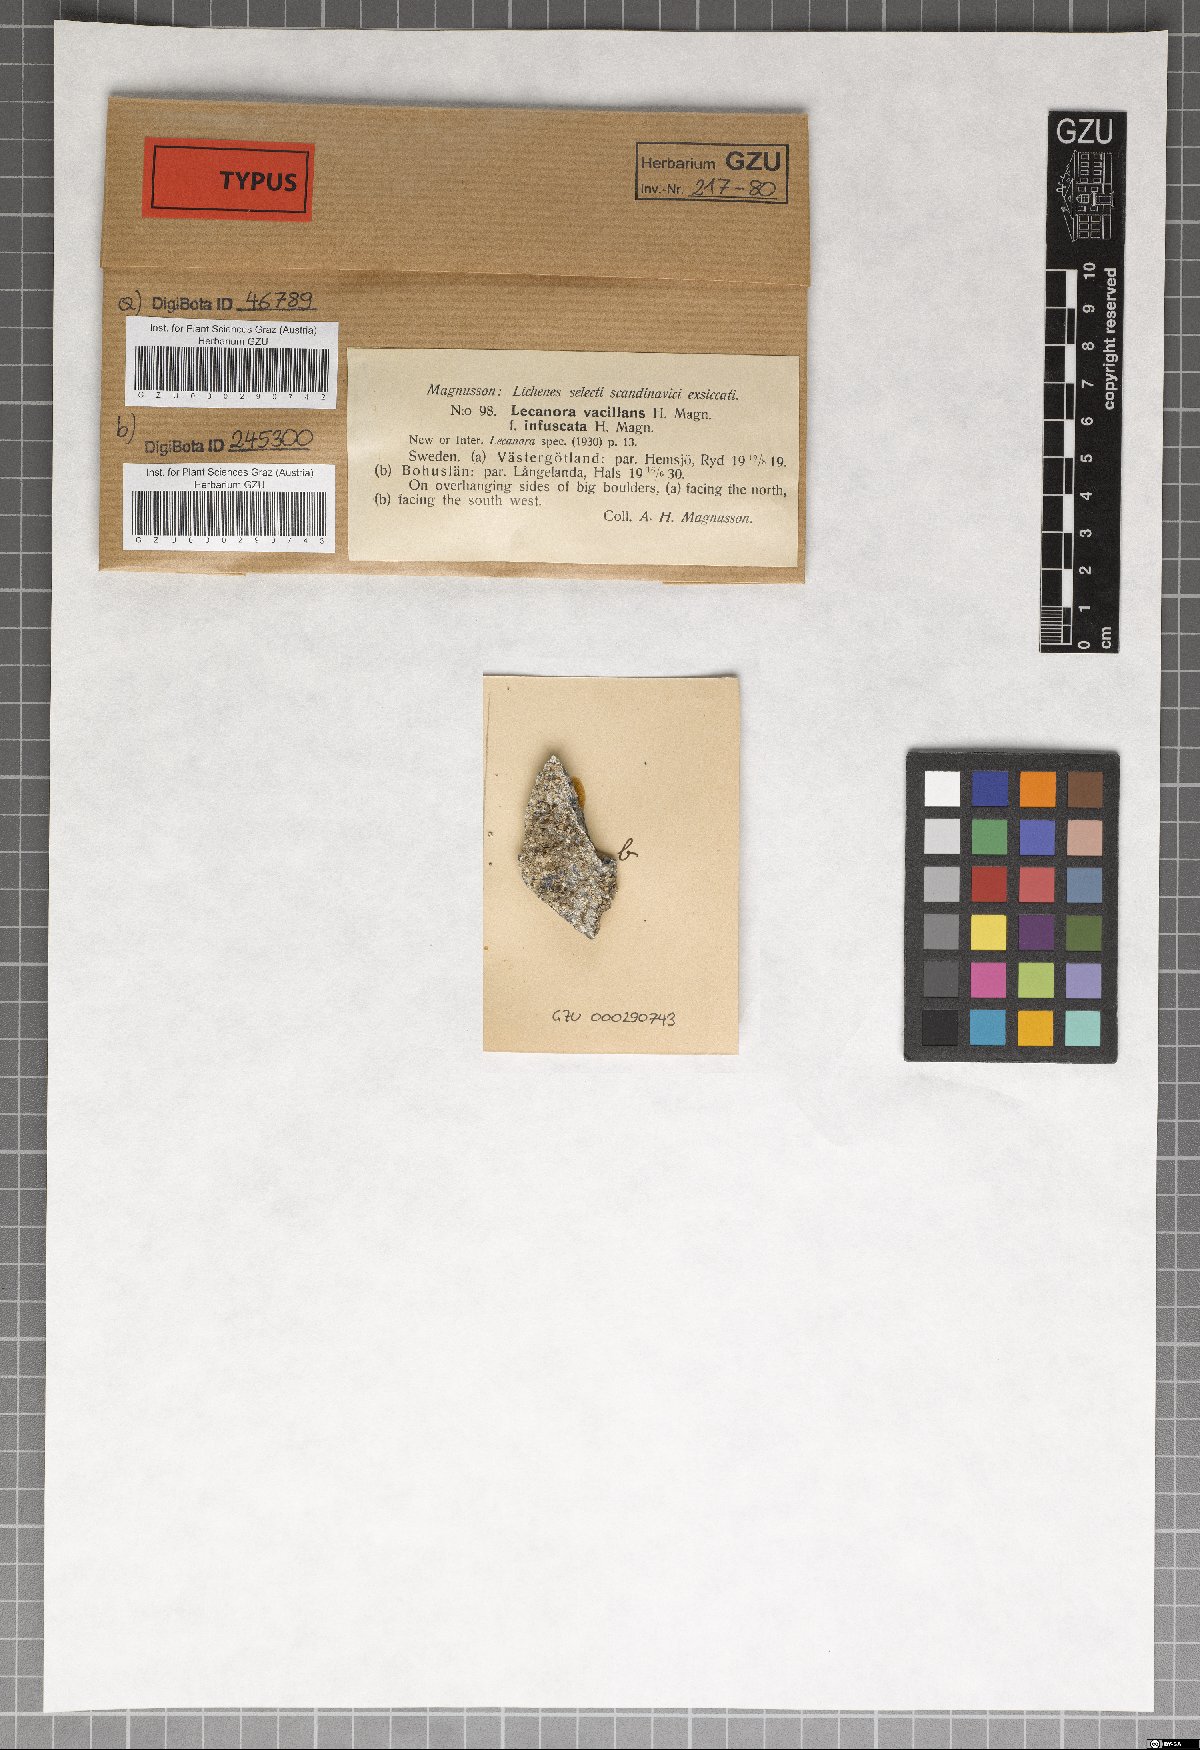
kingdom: Fungi
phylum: Ascomycota
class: Lecanoromycetes
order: Lecanorales
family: Lecanoraceae
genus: Lecanora
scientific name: Lecanora vacillans
